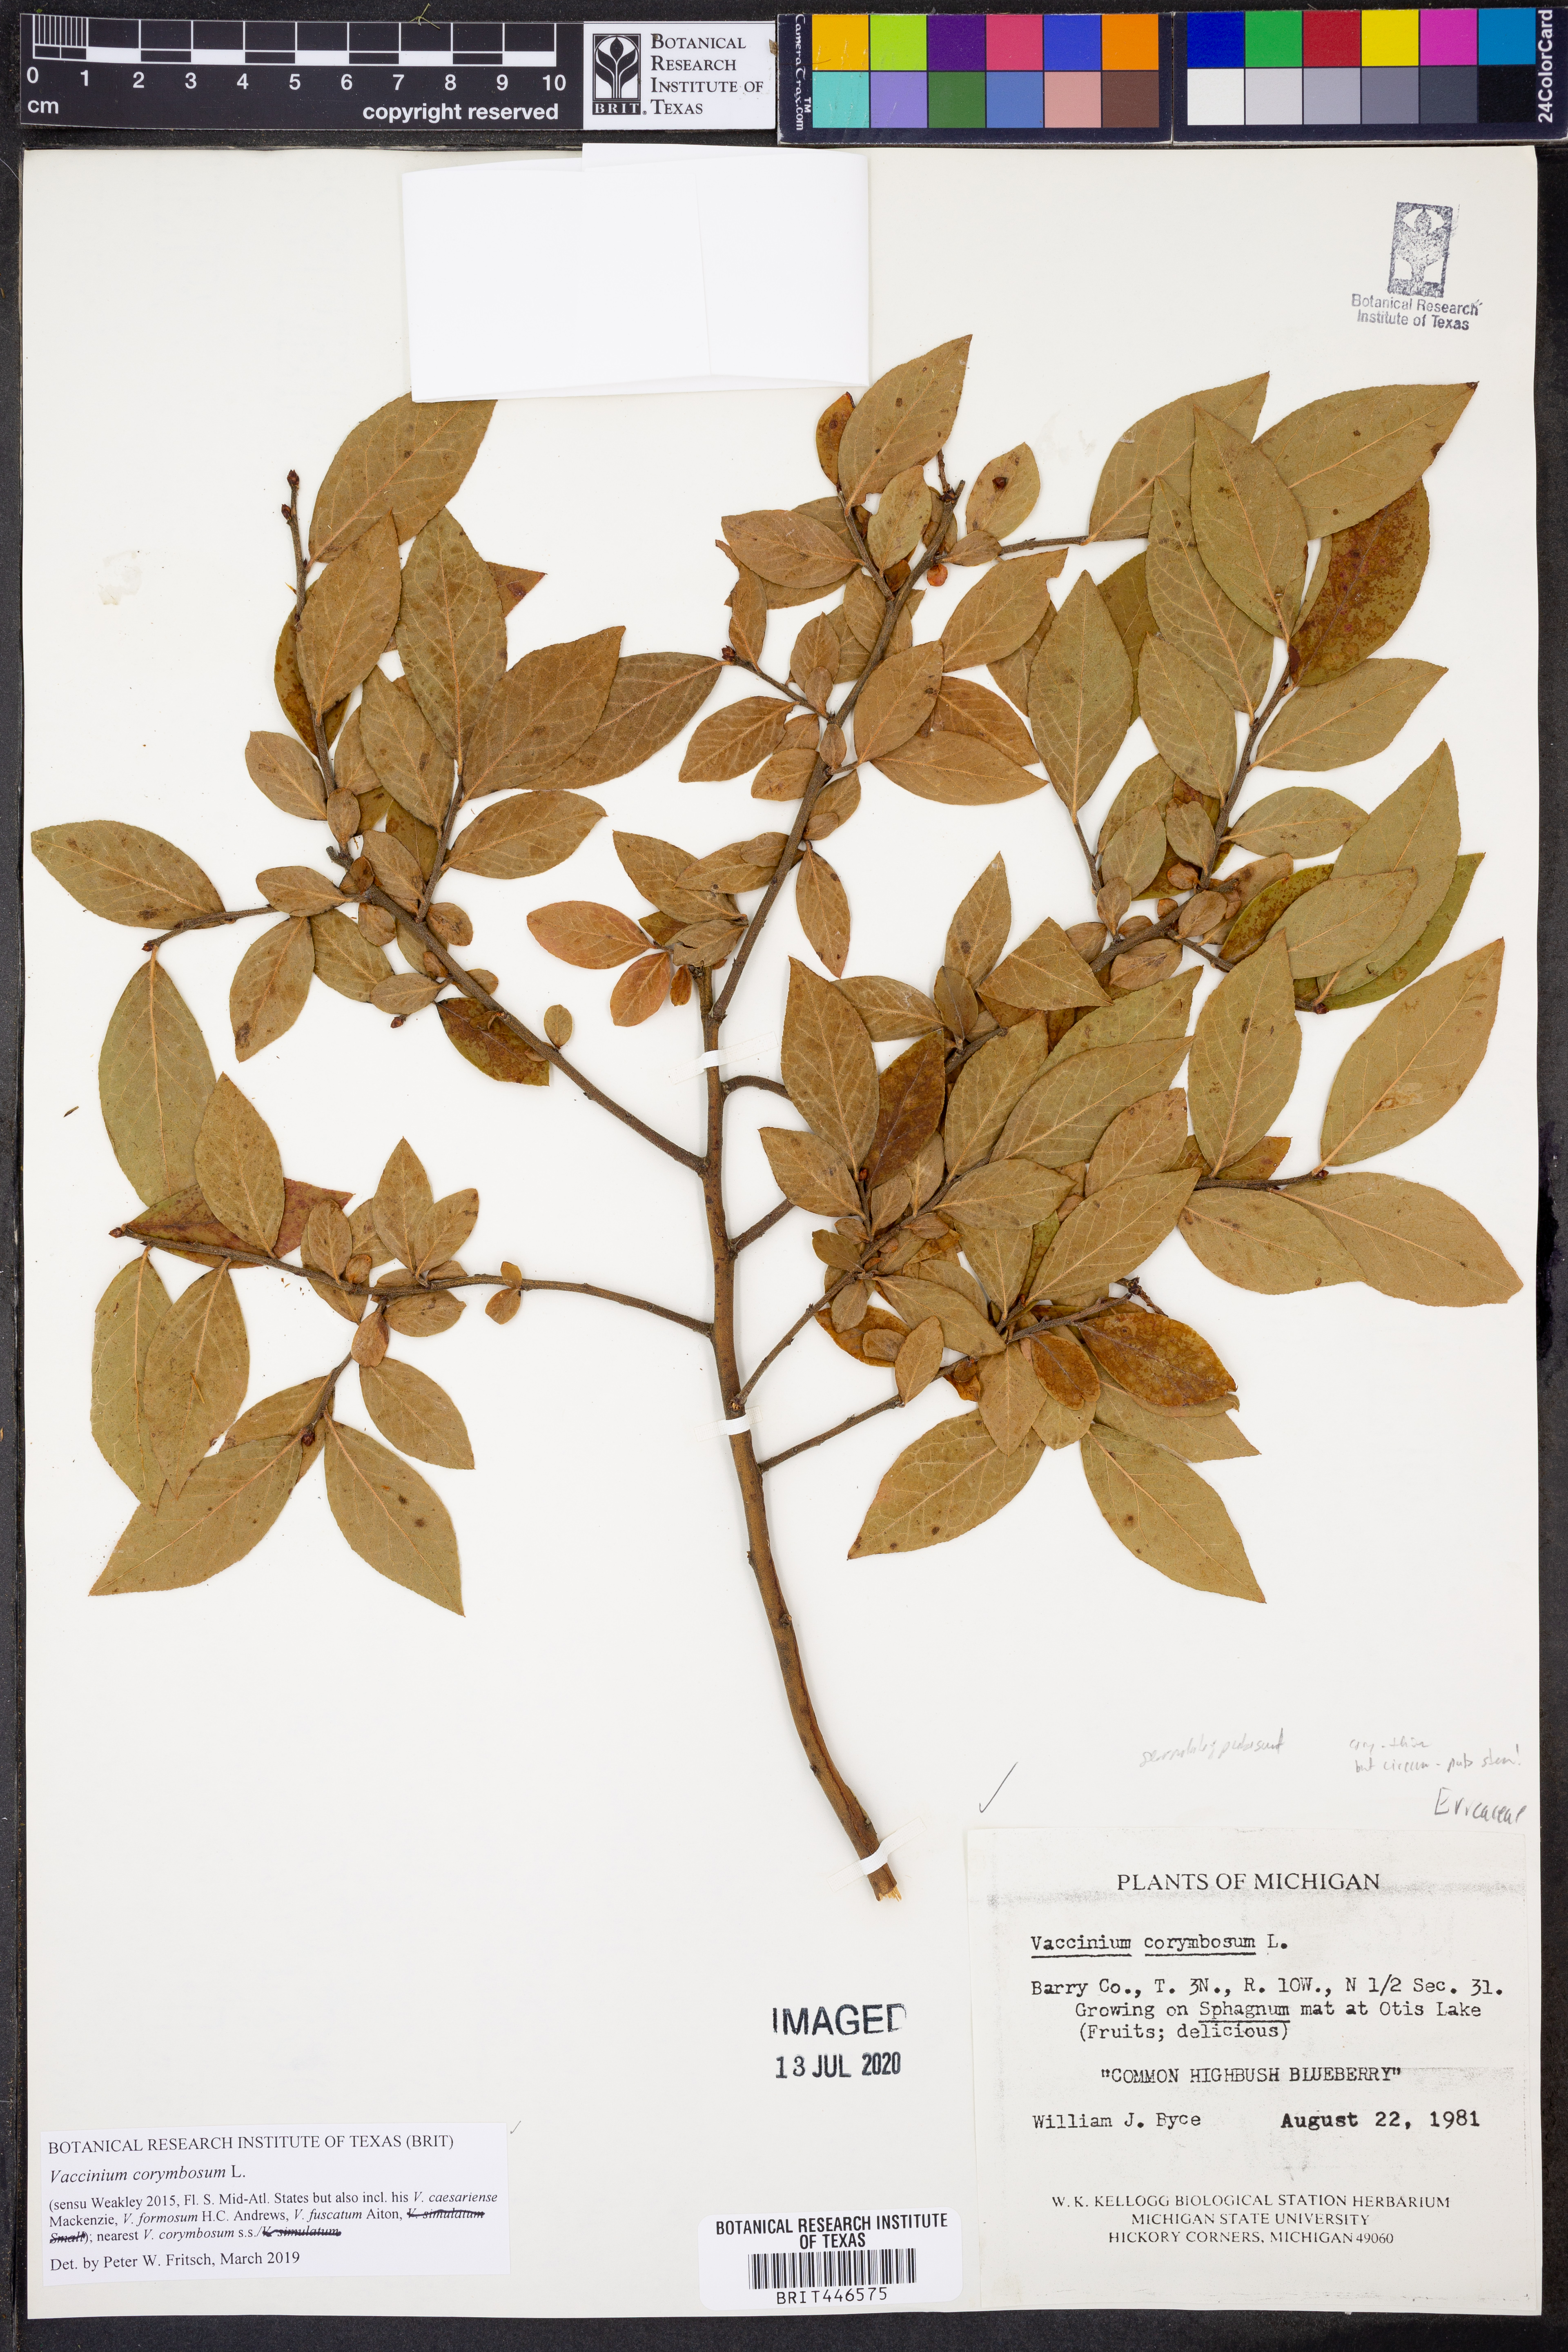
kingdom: Plantae
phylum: Tracheophyta
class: Magnoliopsida
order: Ericales
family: Ericaceae
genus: Vaccinium
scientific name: Vaccinium corymbosum
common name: Blueberry
